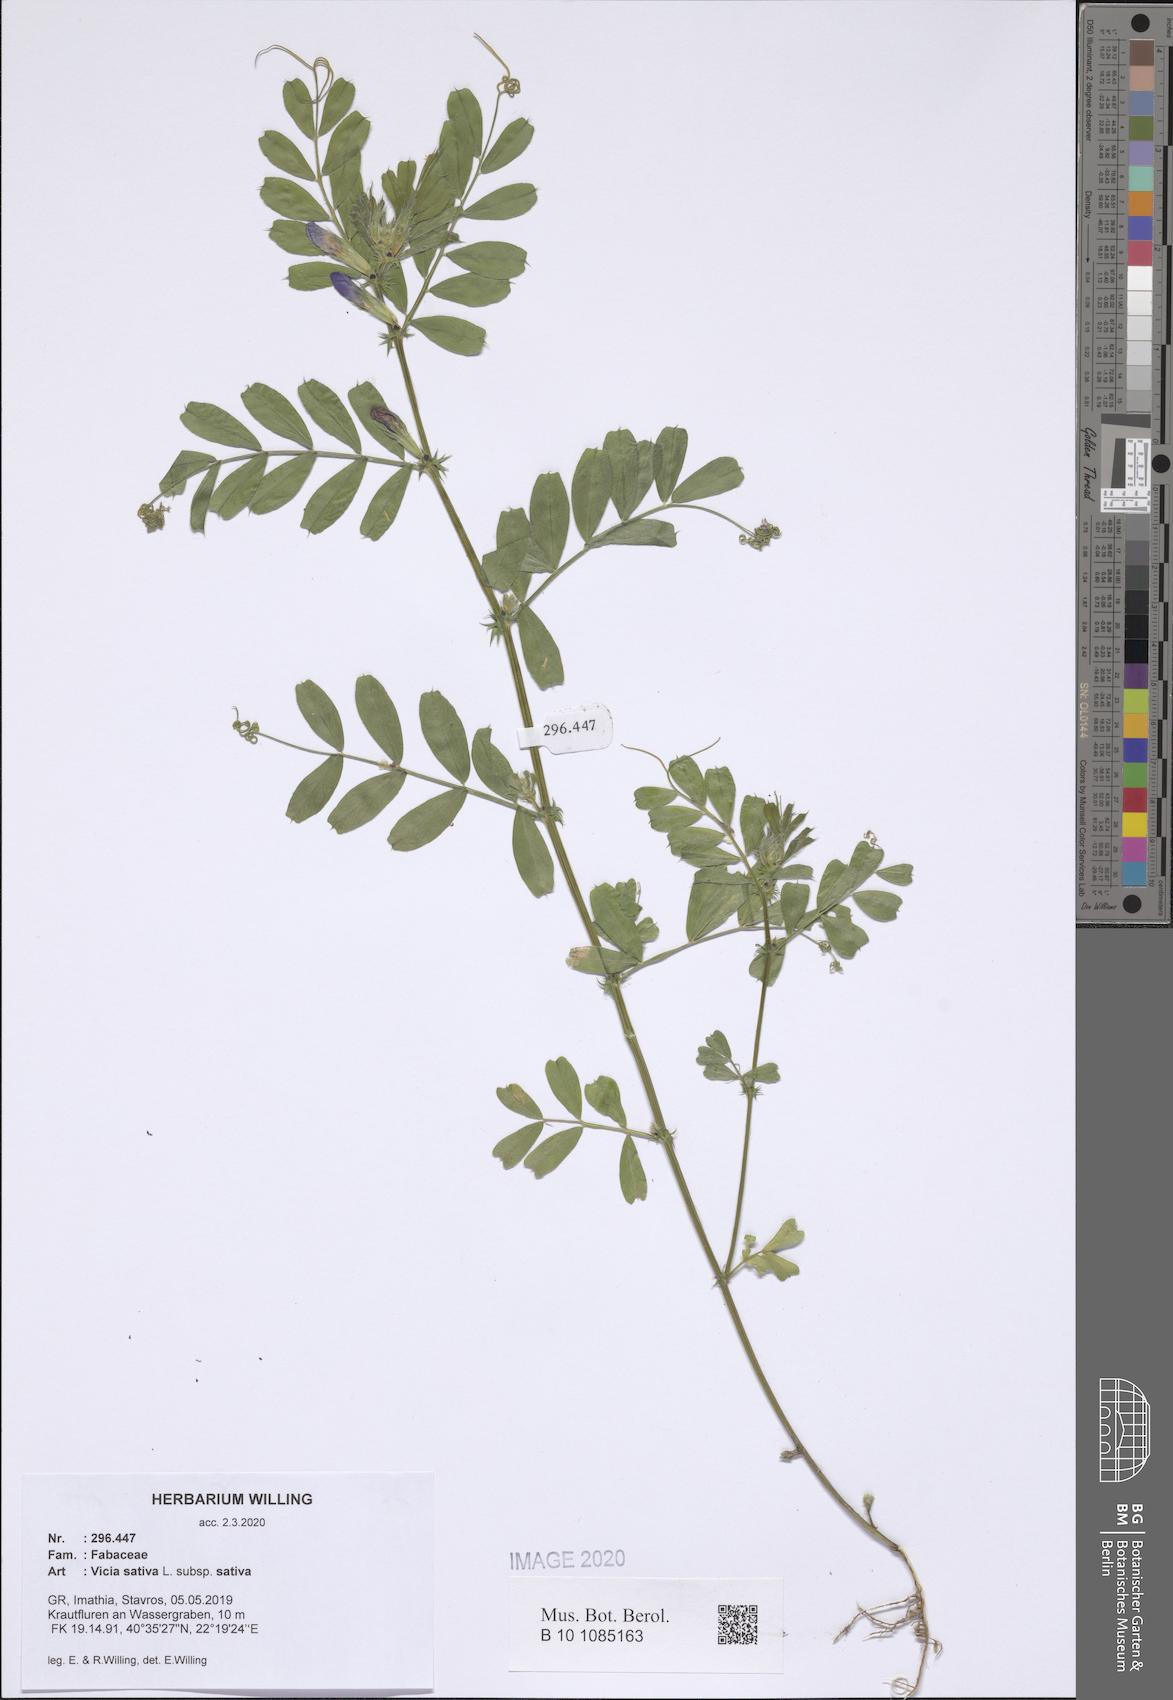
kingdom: Plantae
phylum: Tracheophyta
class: Magnoliopsida
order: Fabales
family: Fabaceae
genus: Vicia
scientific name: Vicia sativa
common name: Garden vetch
